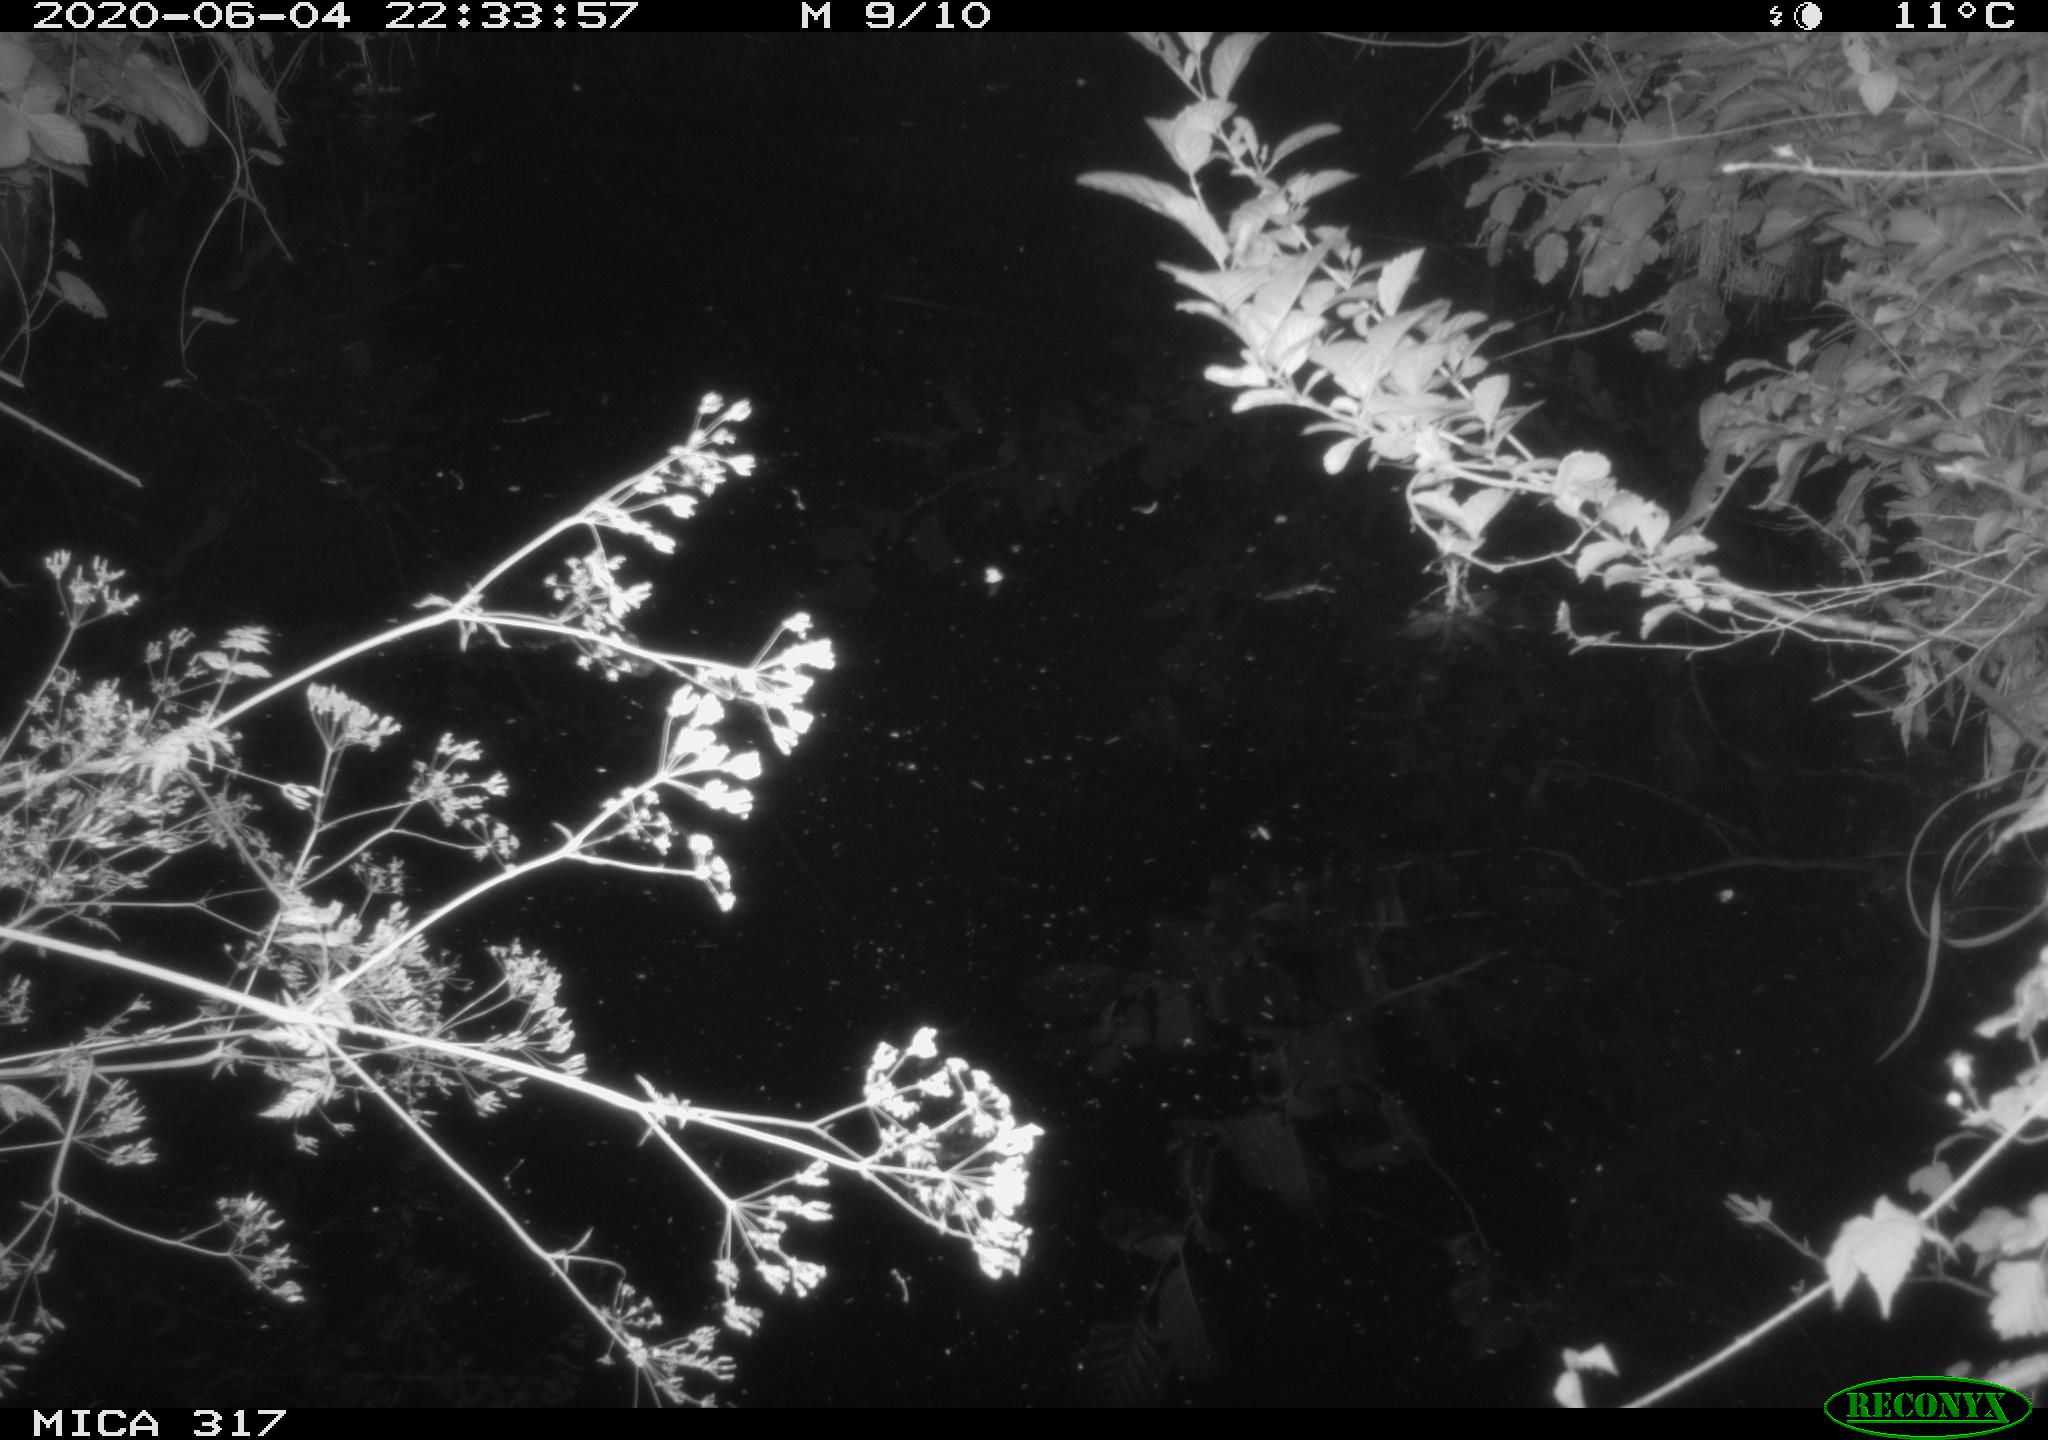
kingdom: Animalia
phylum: Chordata
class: Aves
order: Anseriformes
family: Anatidae
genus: Anas
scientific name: Anas platyrhynchos
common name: Mallard
